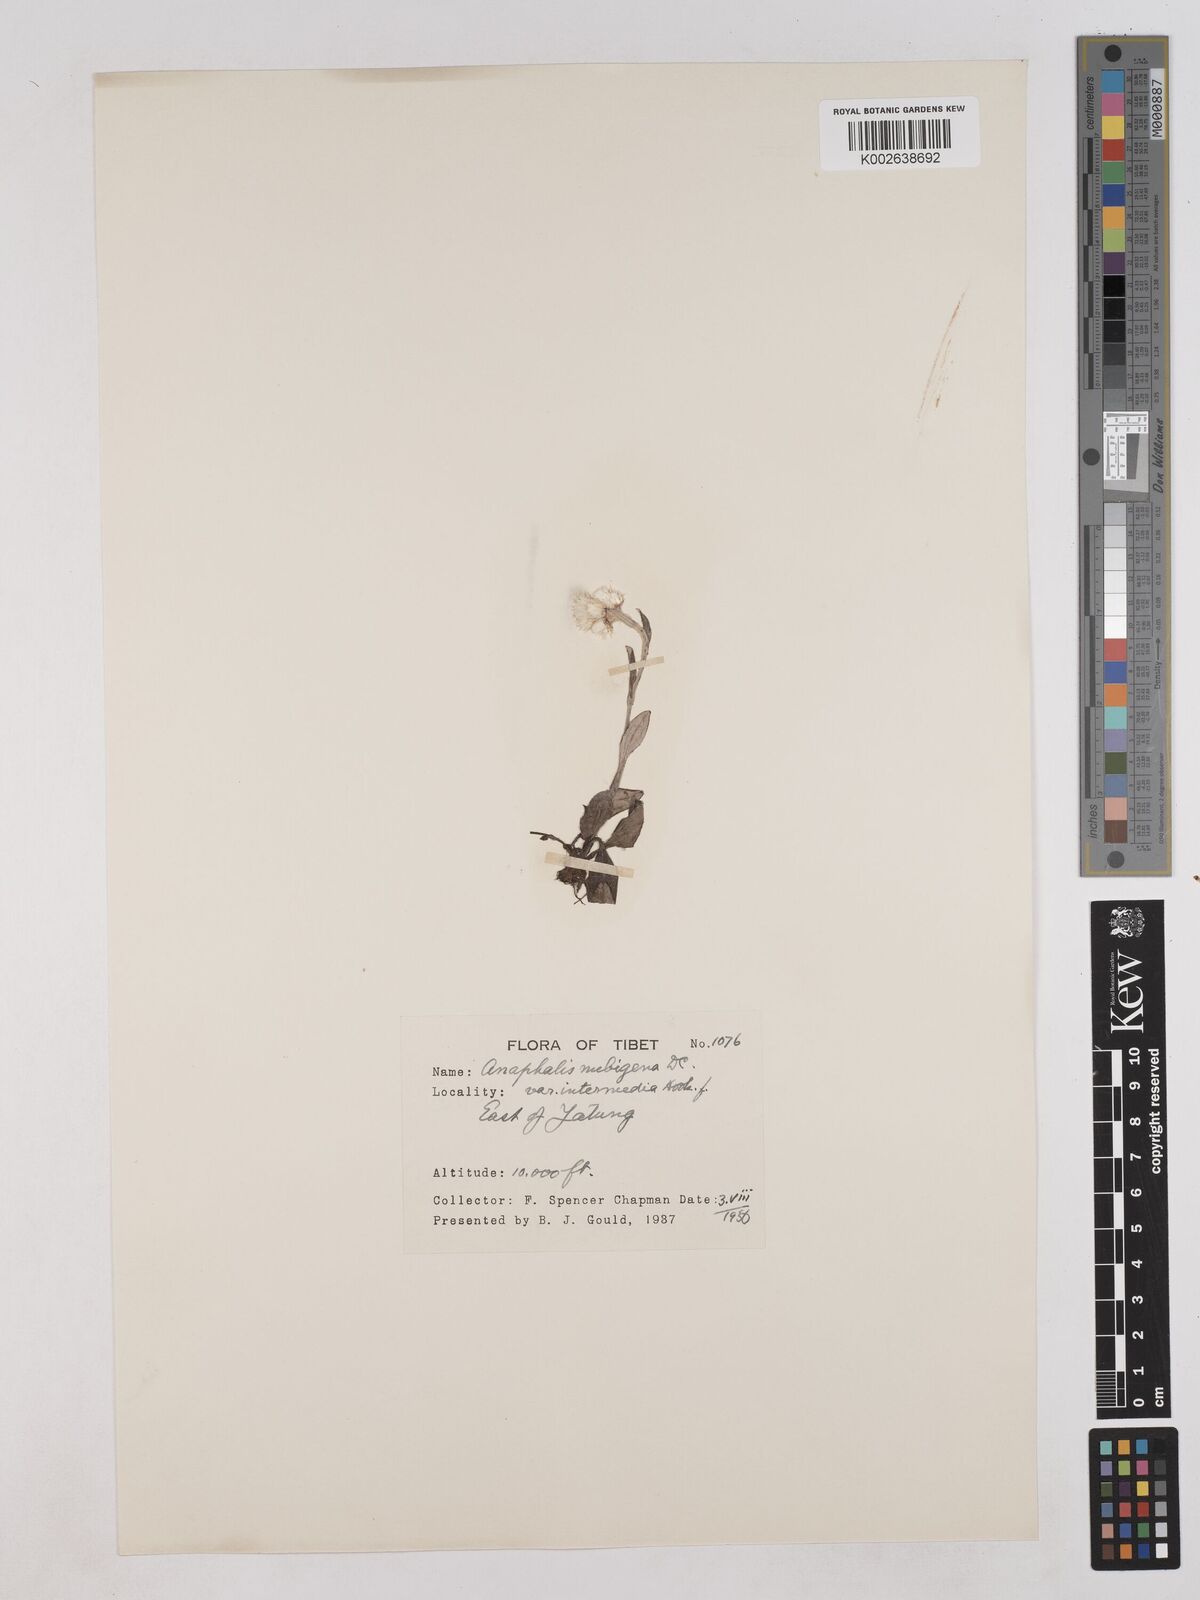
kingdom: Plantae
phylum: Tracheophyta
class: Magnoliopsida
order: Asterales
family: Asteraceae
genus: Anaphalis
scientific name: Anaphalis nepalensis
